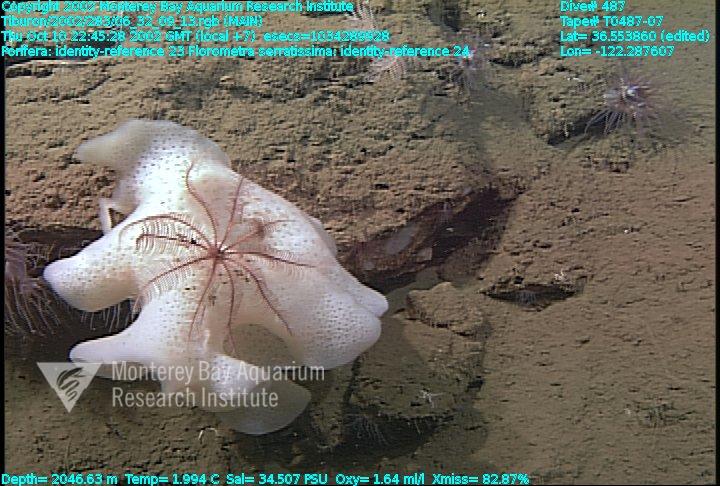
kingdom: Animalia
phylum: Porifera
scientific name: Porifera
